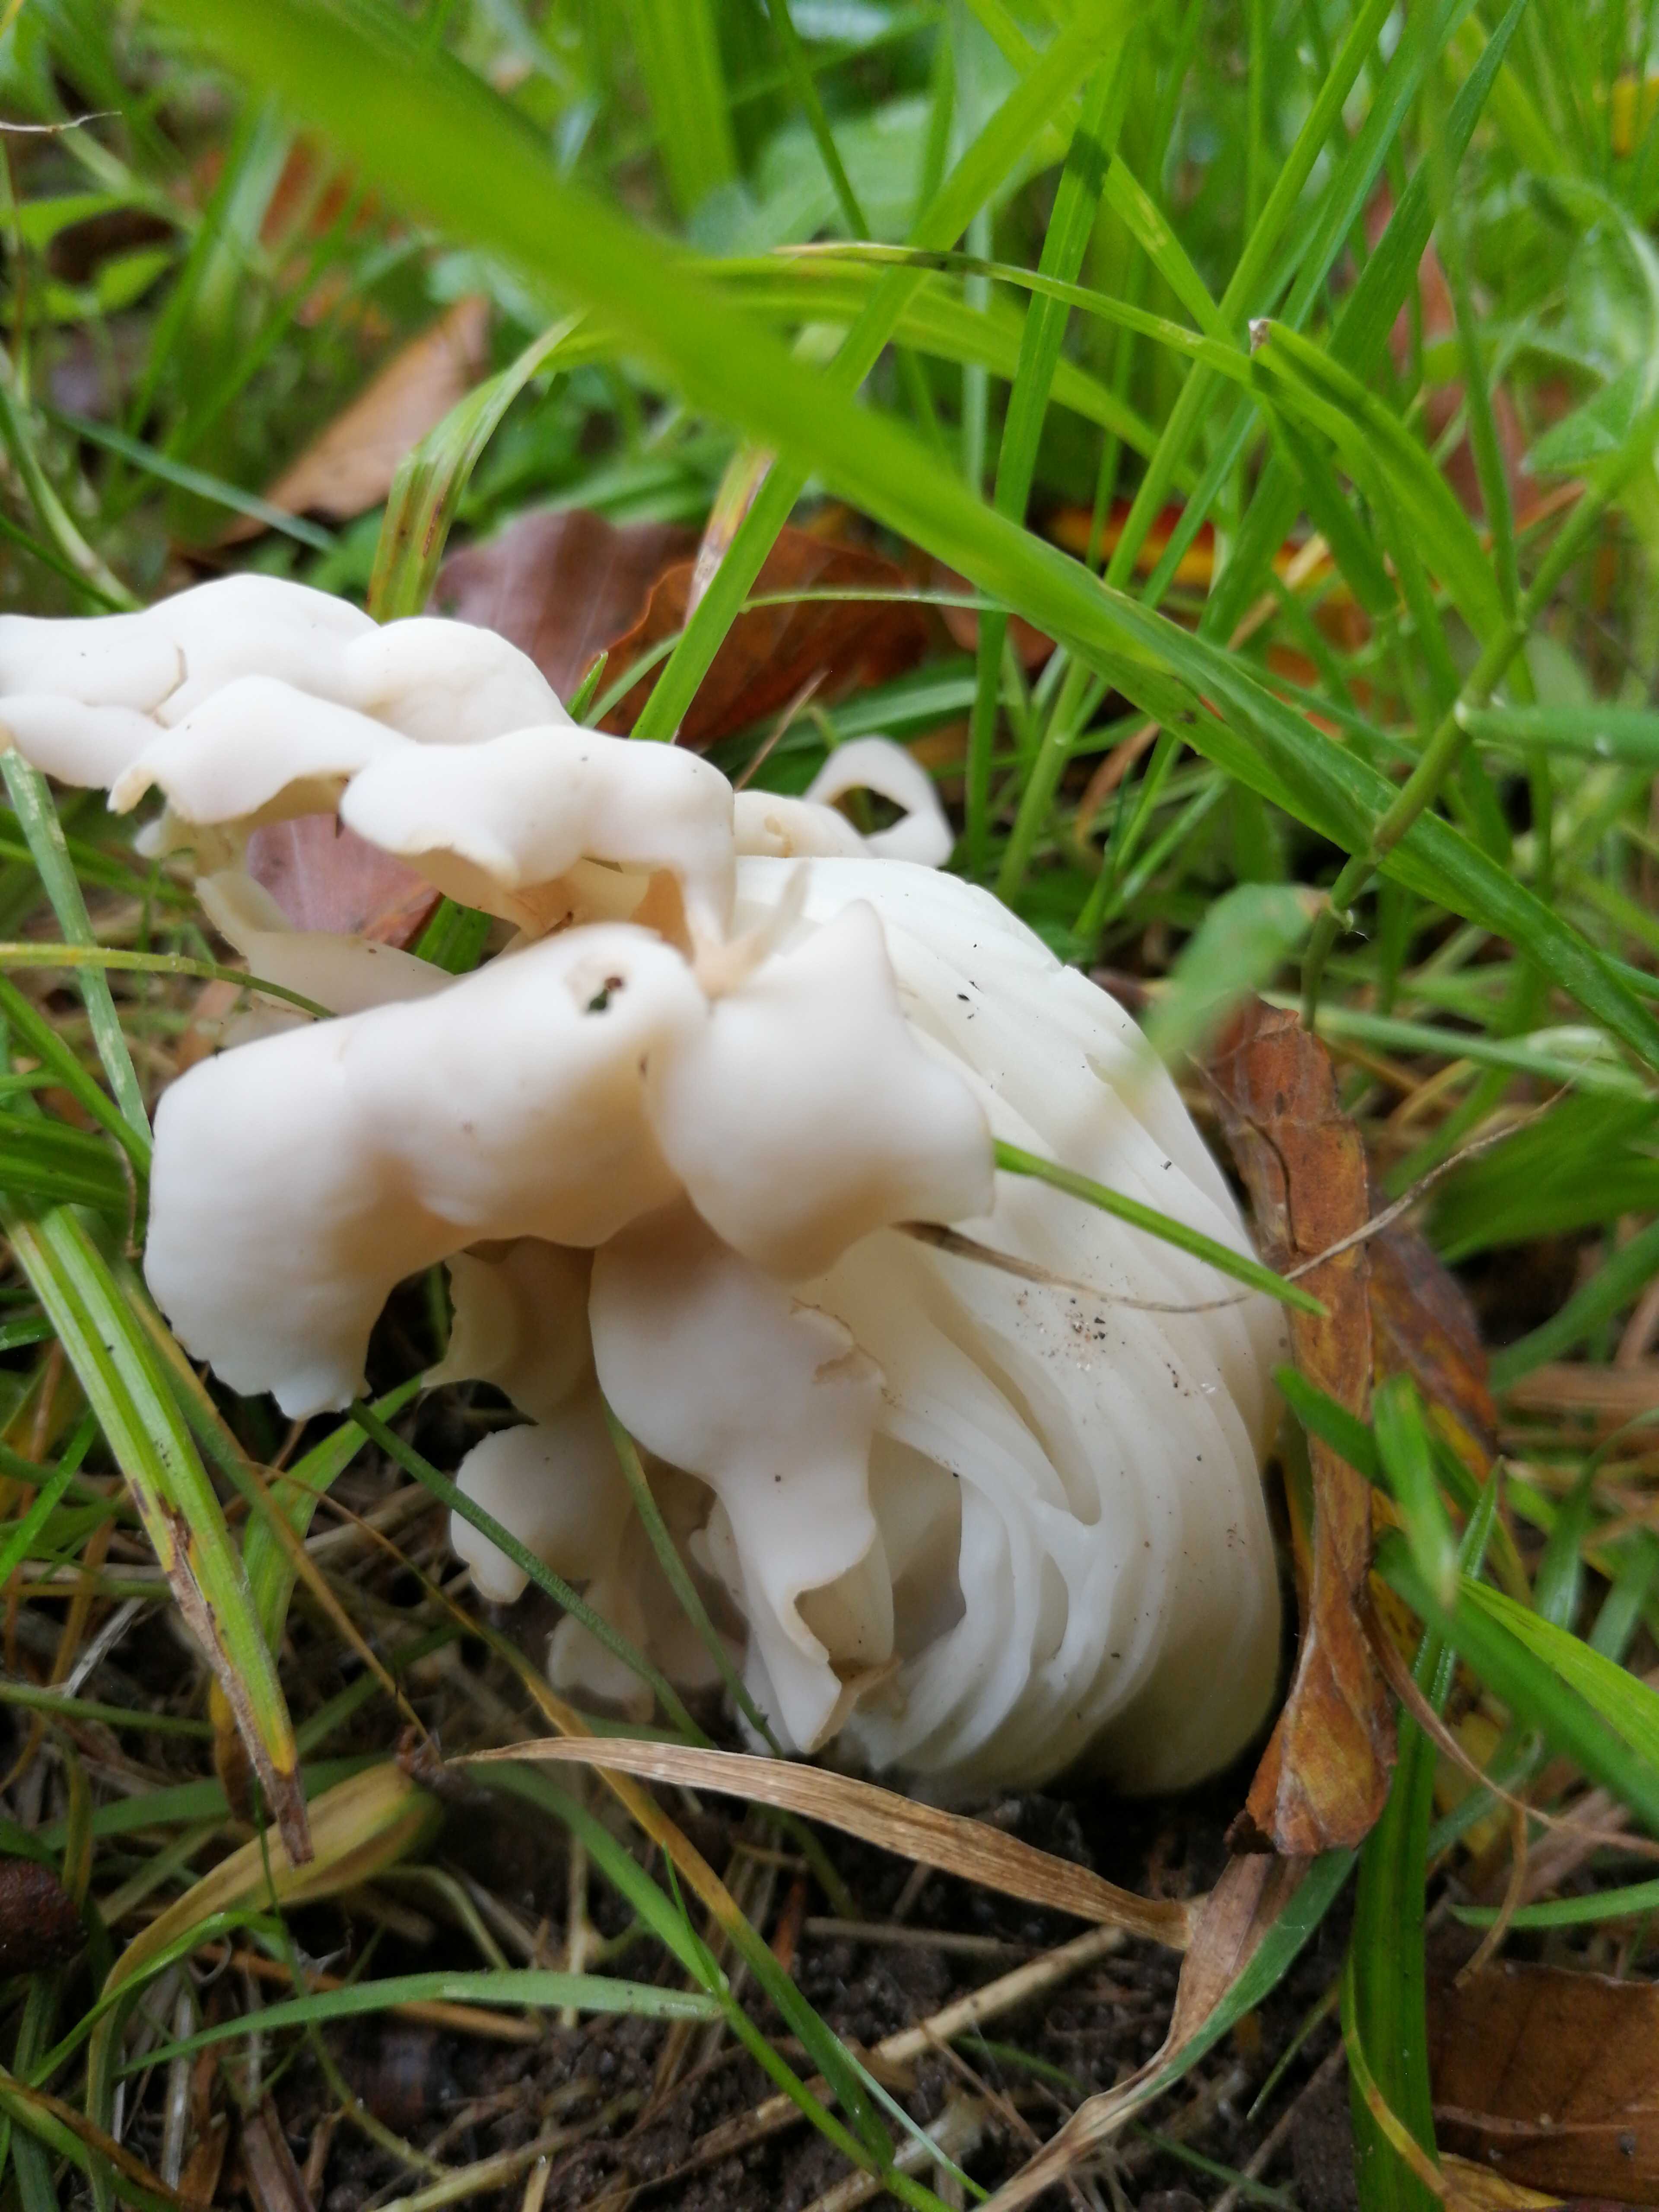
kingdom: Fungi
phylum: Ascomycota
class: Pezizomycetes
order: Pezizales
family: Helvellaceae
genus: Helvella
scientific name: Helvella crispa
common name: kruset foldhat
